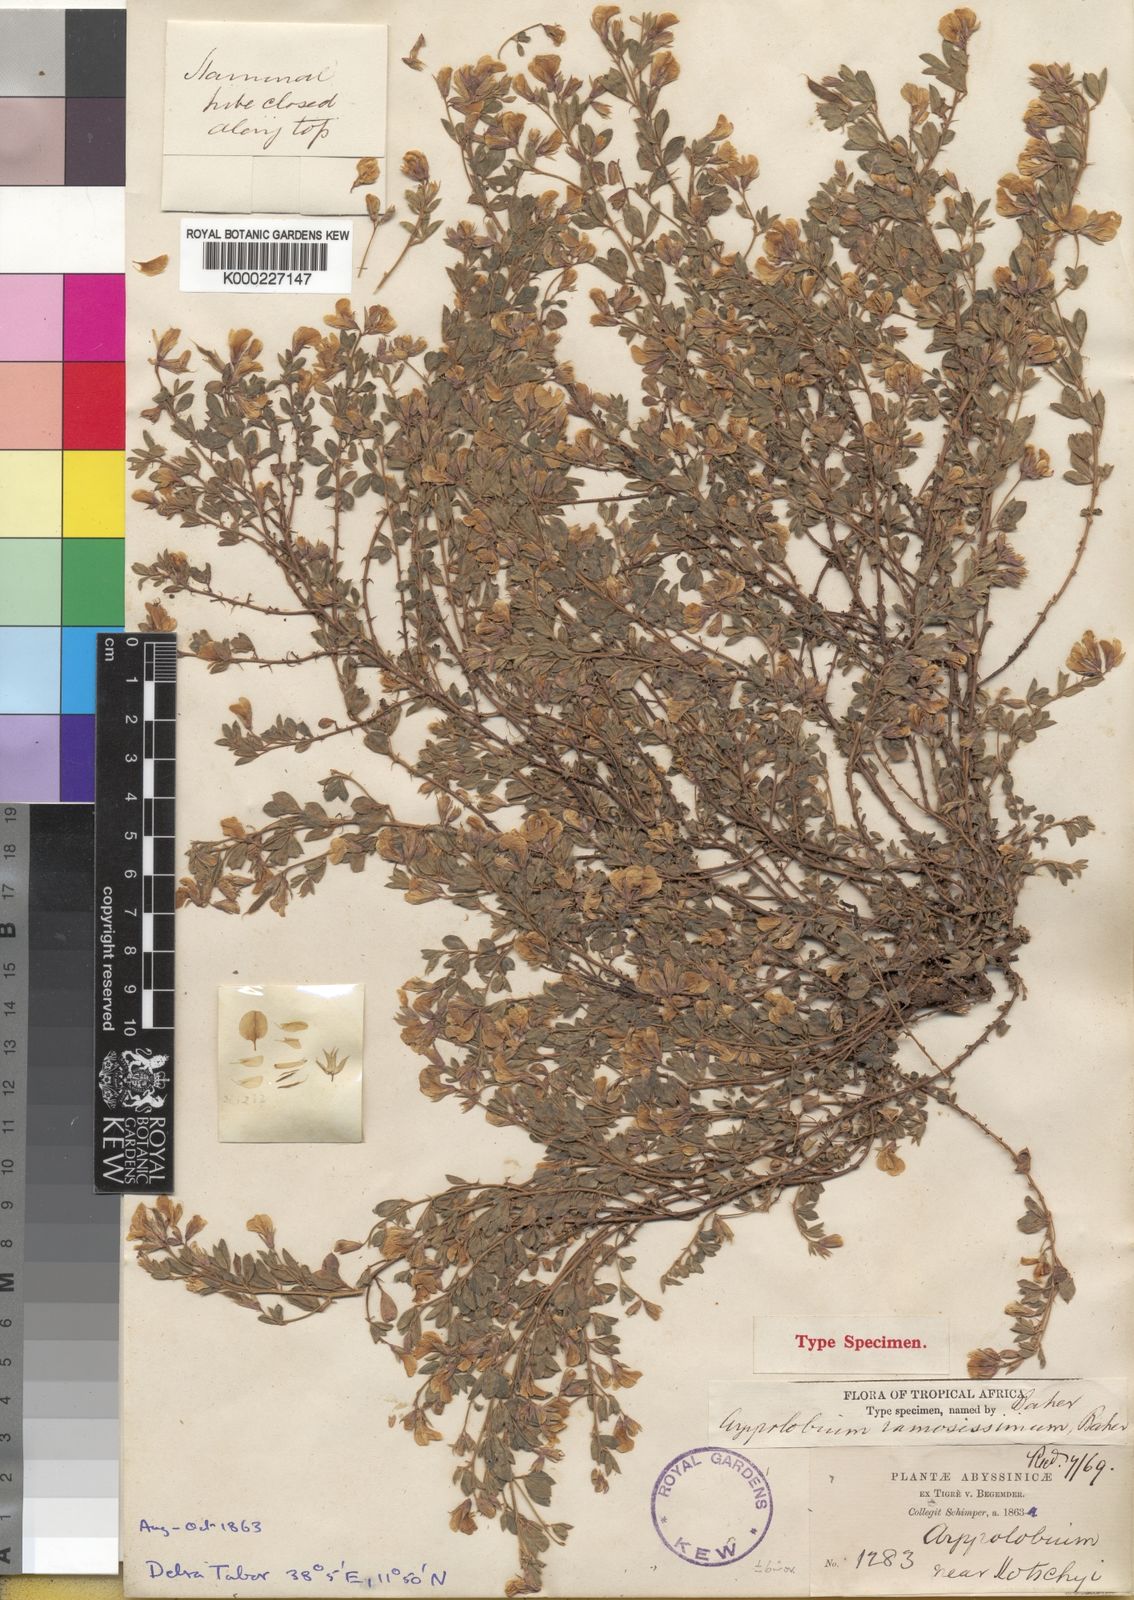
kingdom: Plantae
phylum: Tracheophyta
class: Magnoliopsida
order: Fabales
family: Fabaceae
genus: Argyrolobium
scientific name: Argyrolobium ramosissimum
